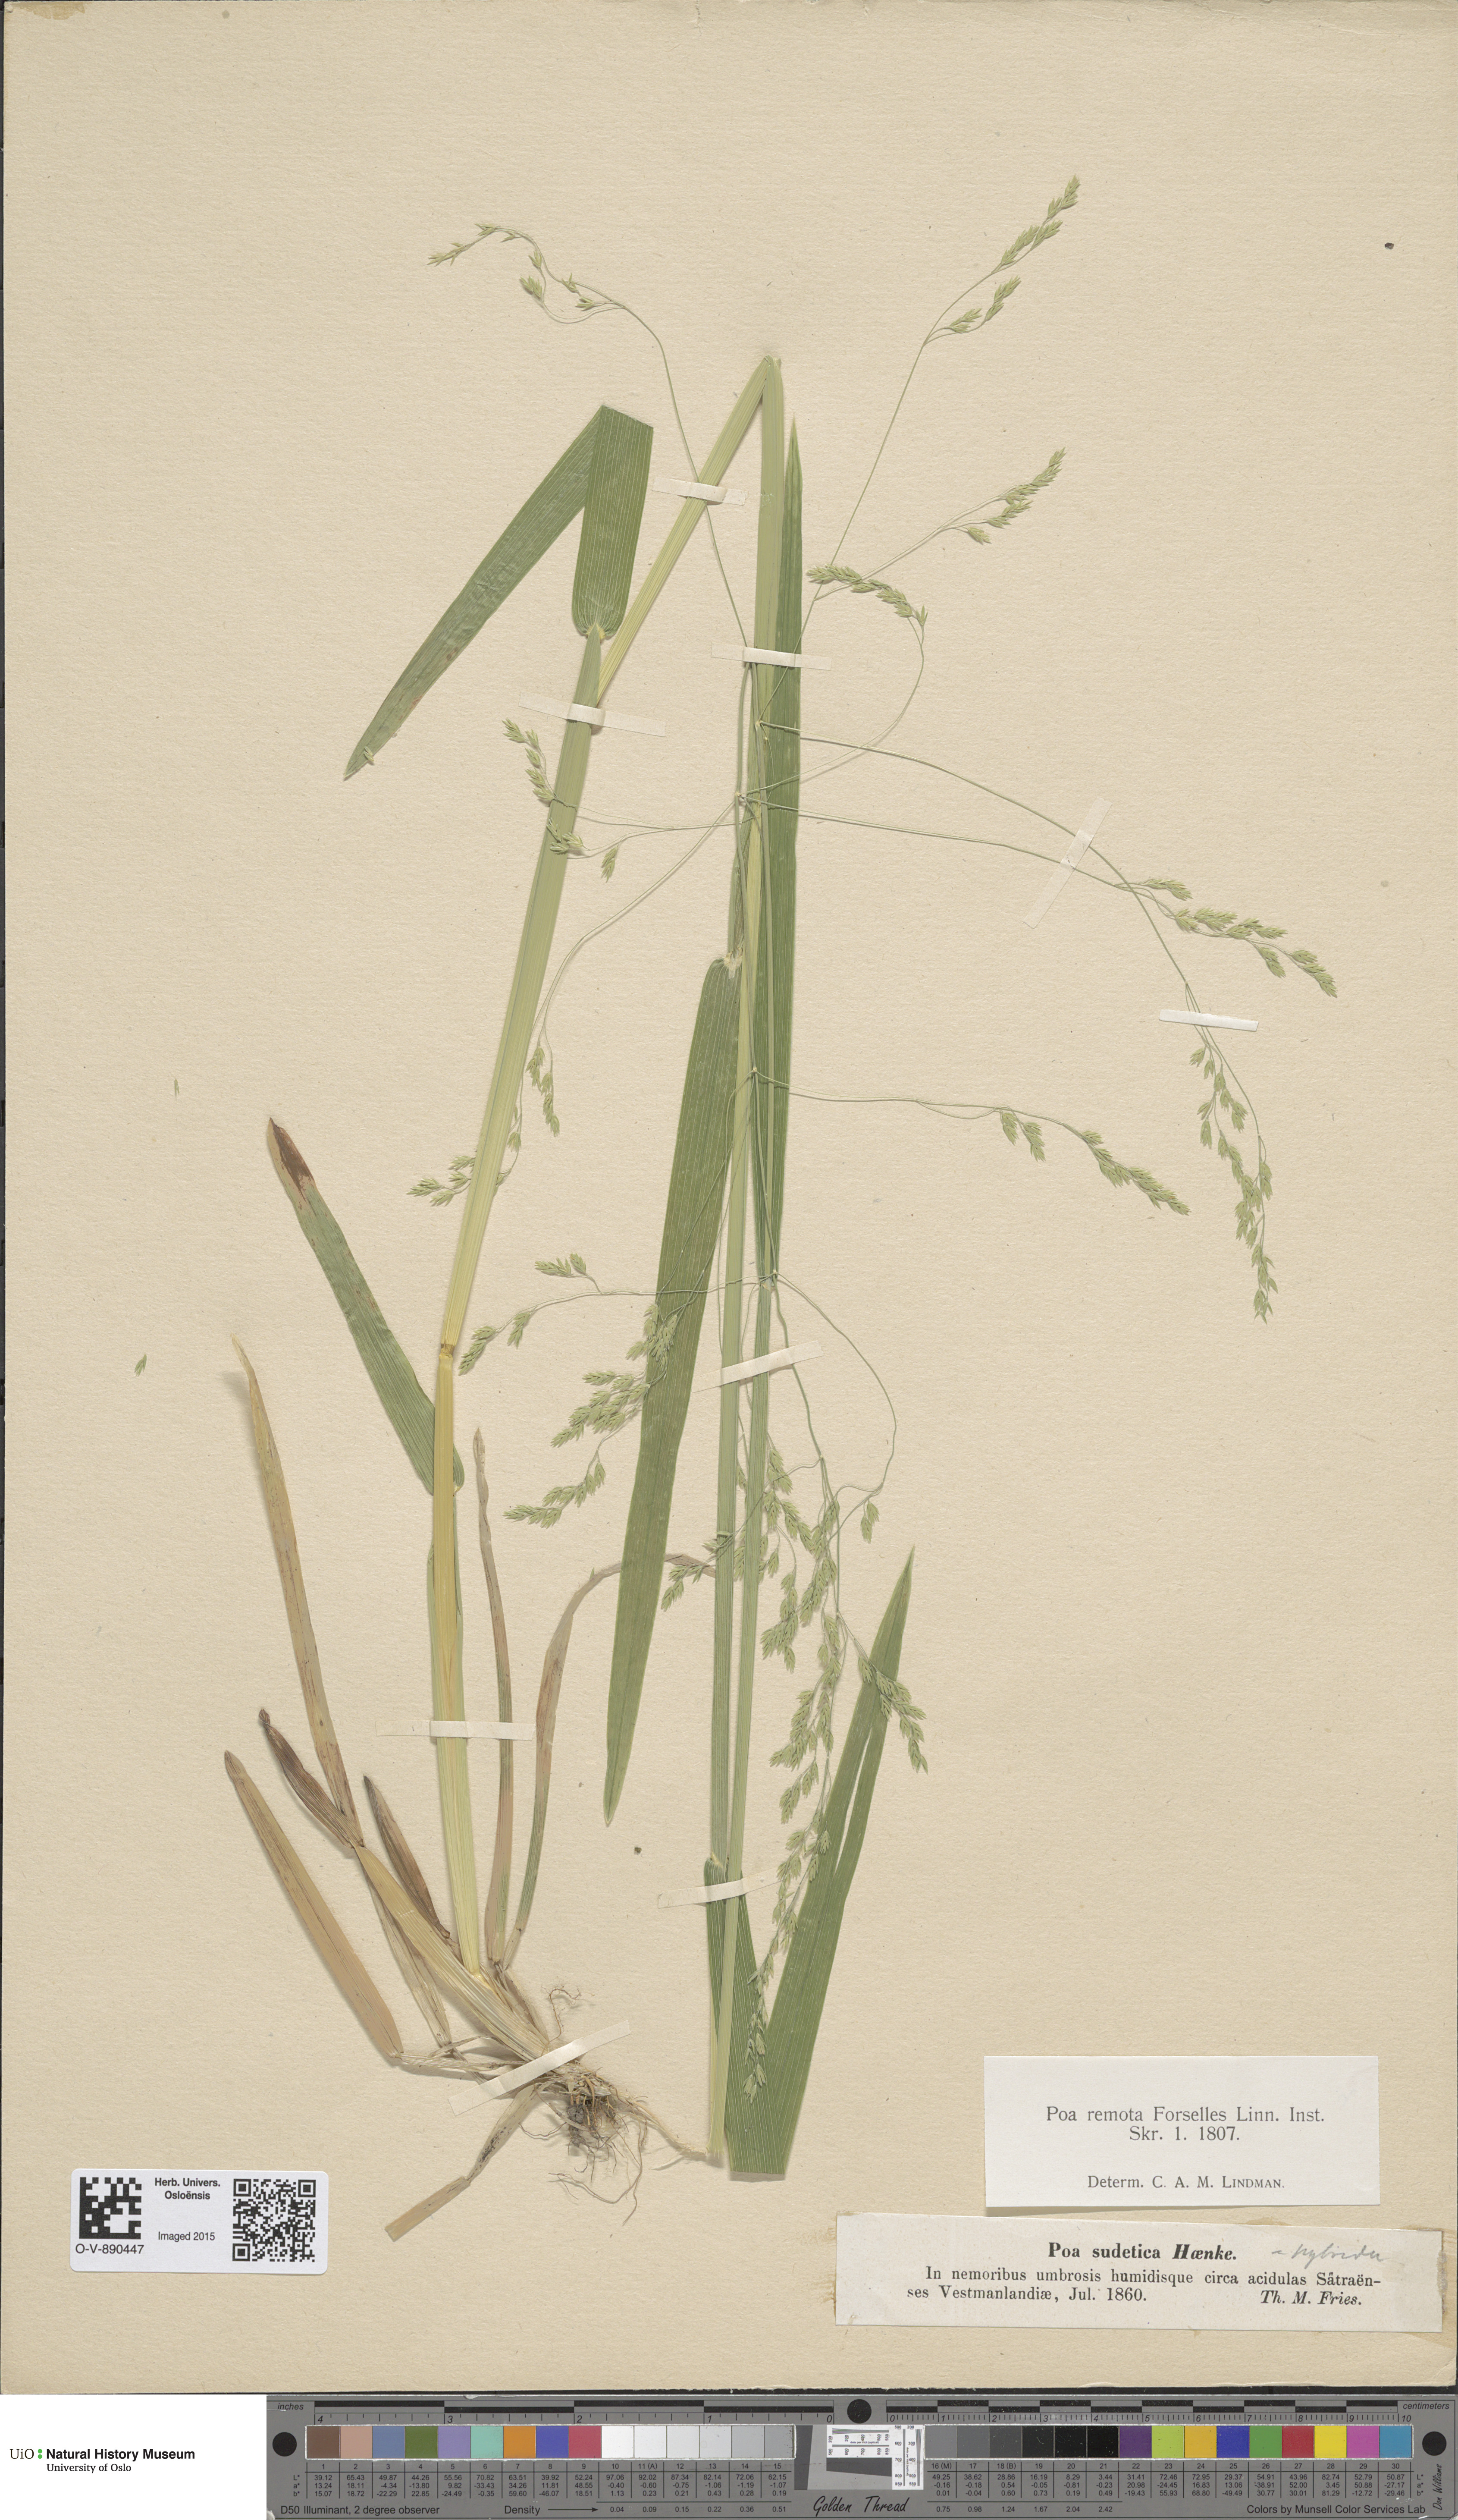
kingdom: Plantae
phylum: Tracheophyta
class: Liliopsida
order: Poales
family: Poaceae
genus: Poa
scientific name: Poa remota
